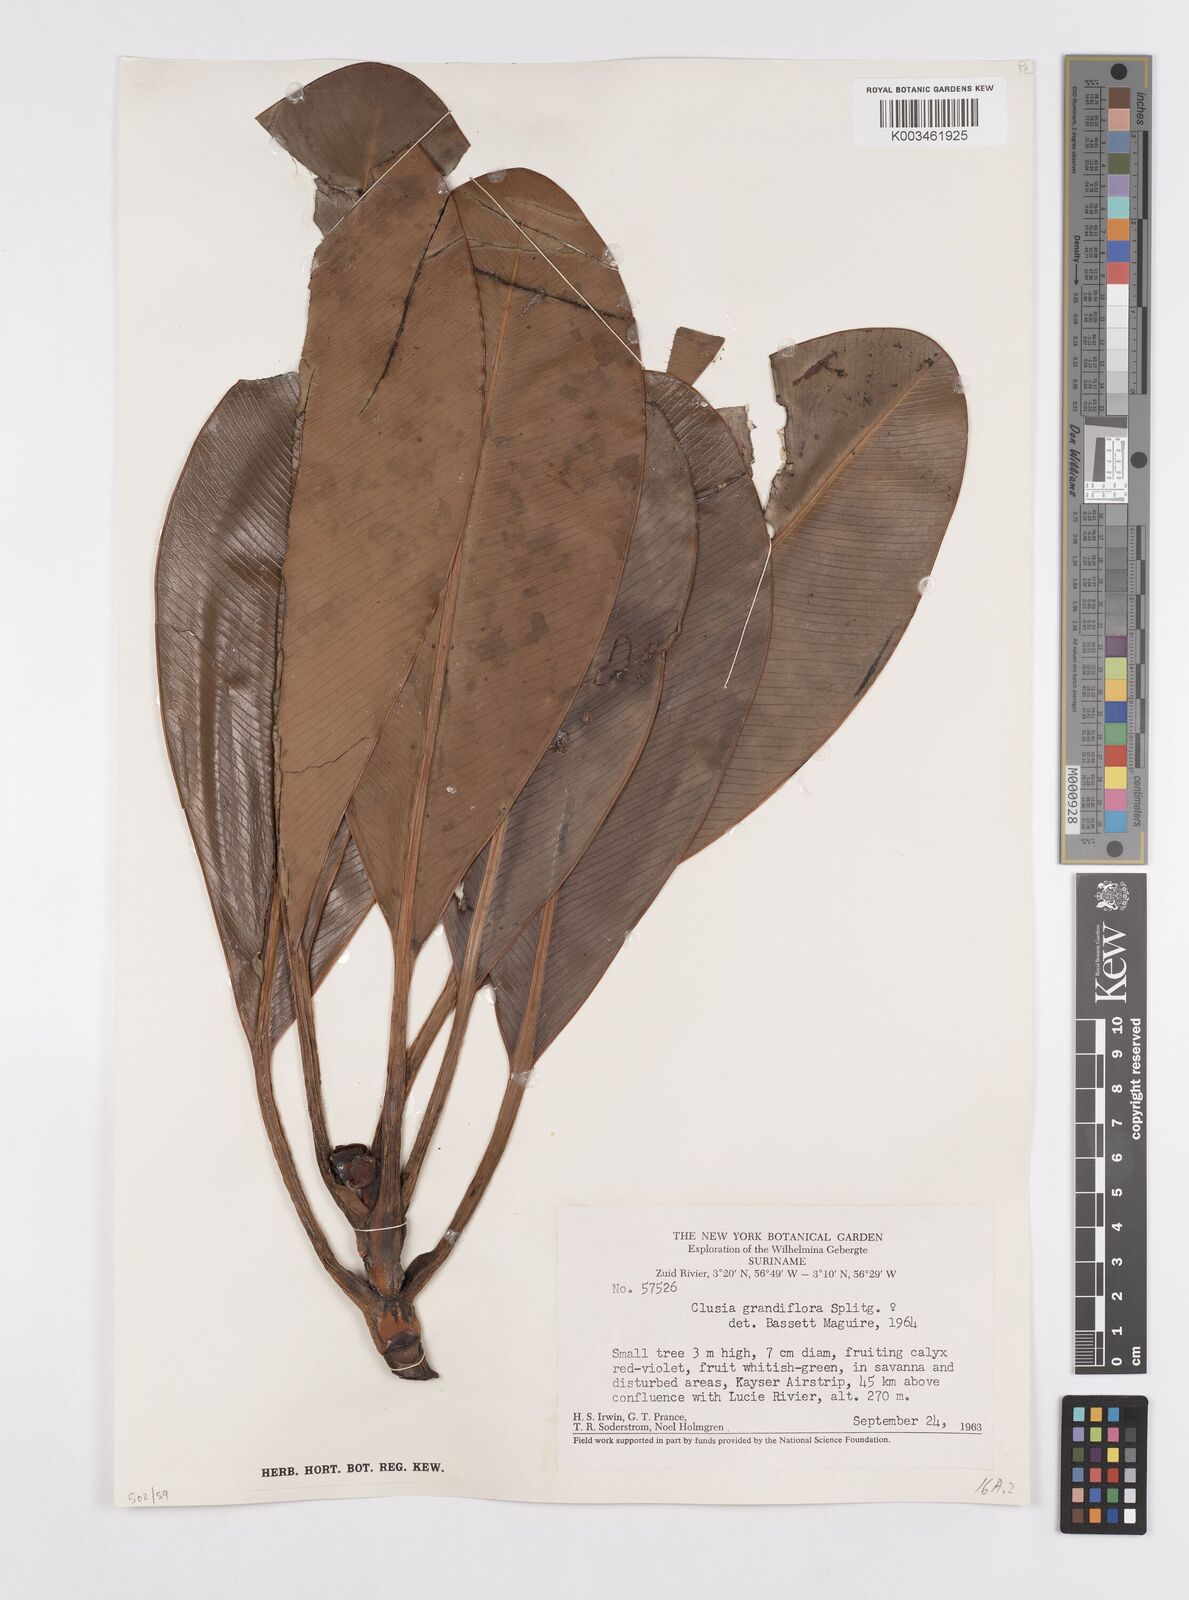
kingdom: Plantae
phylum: Tracheophyta
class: Magnoliopsida
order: Malpighiales
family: Clusiaceae
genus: Clusia
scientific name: Clusia grandiflora
